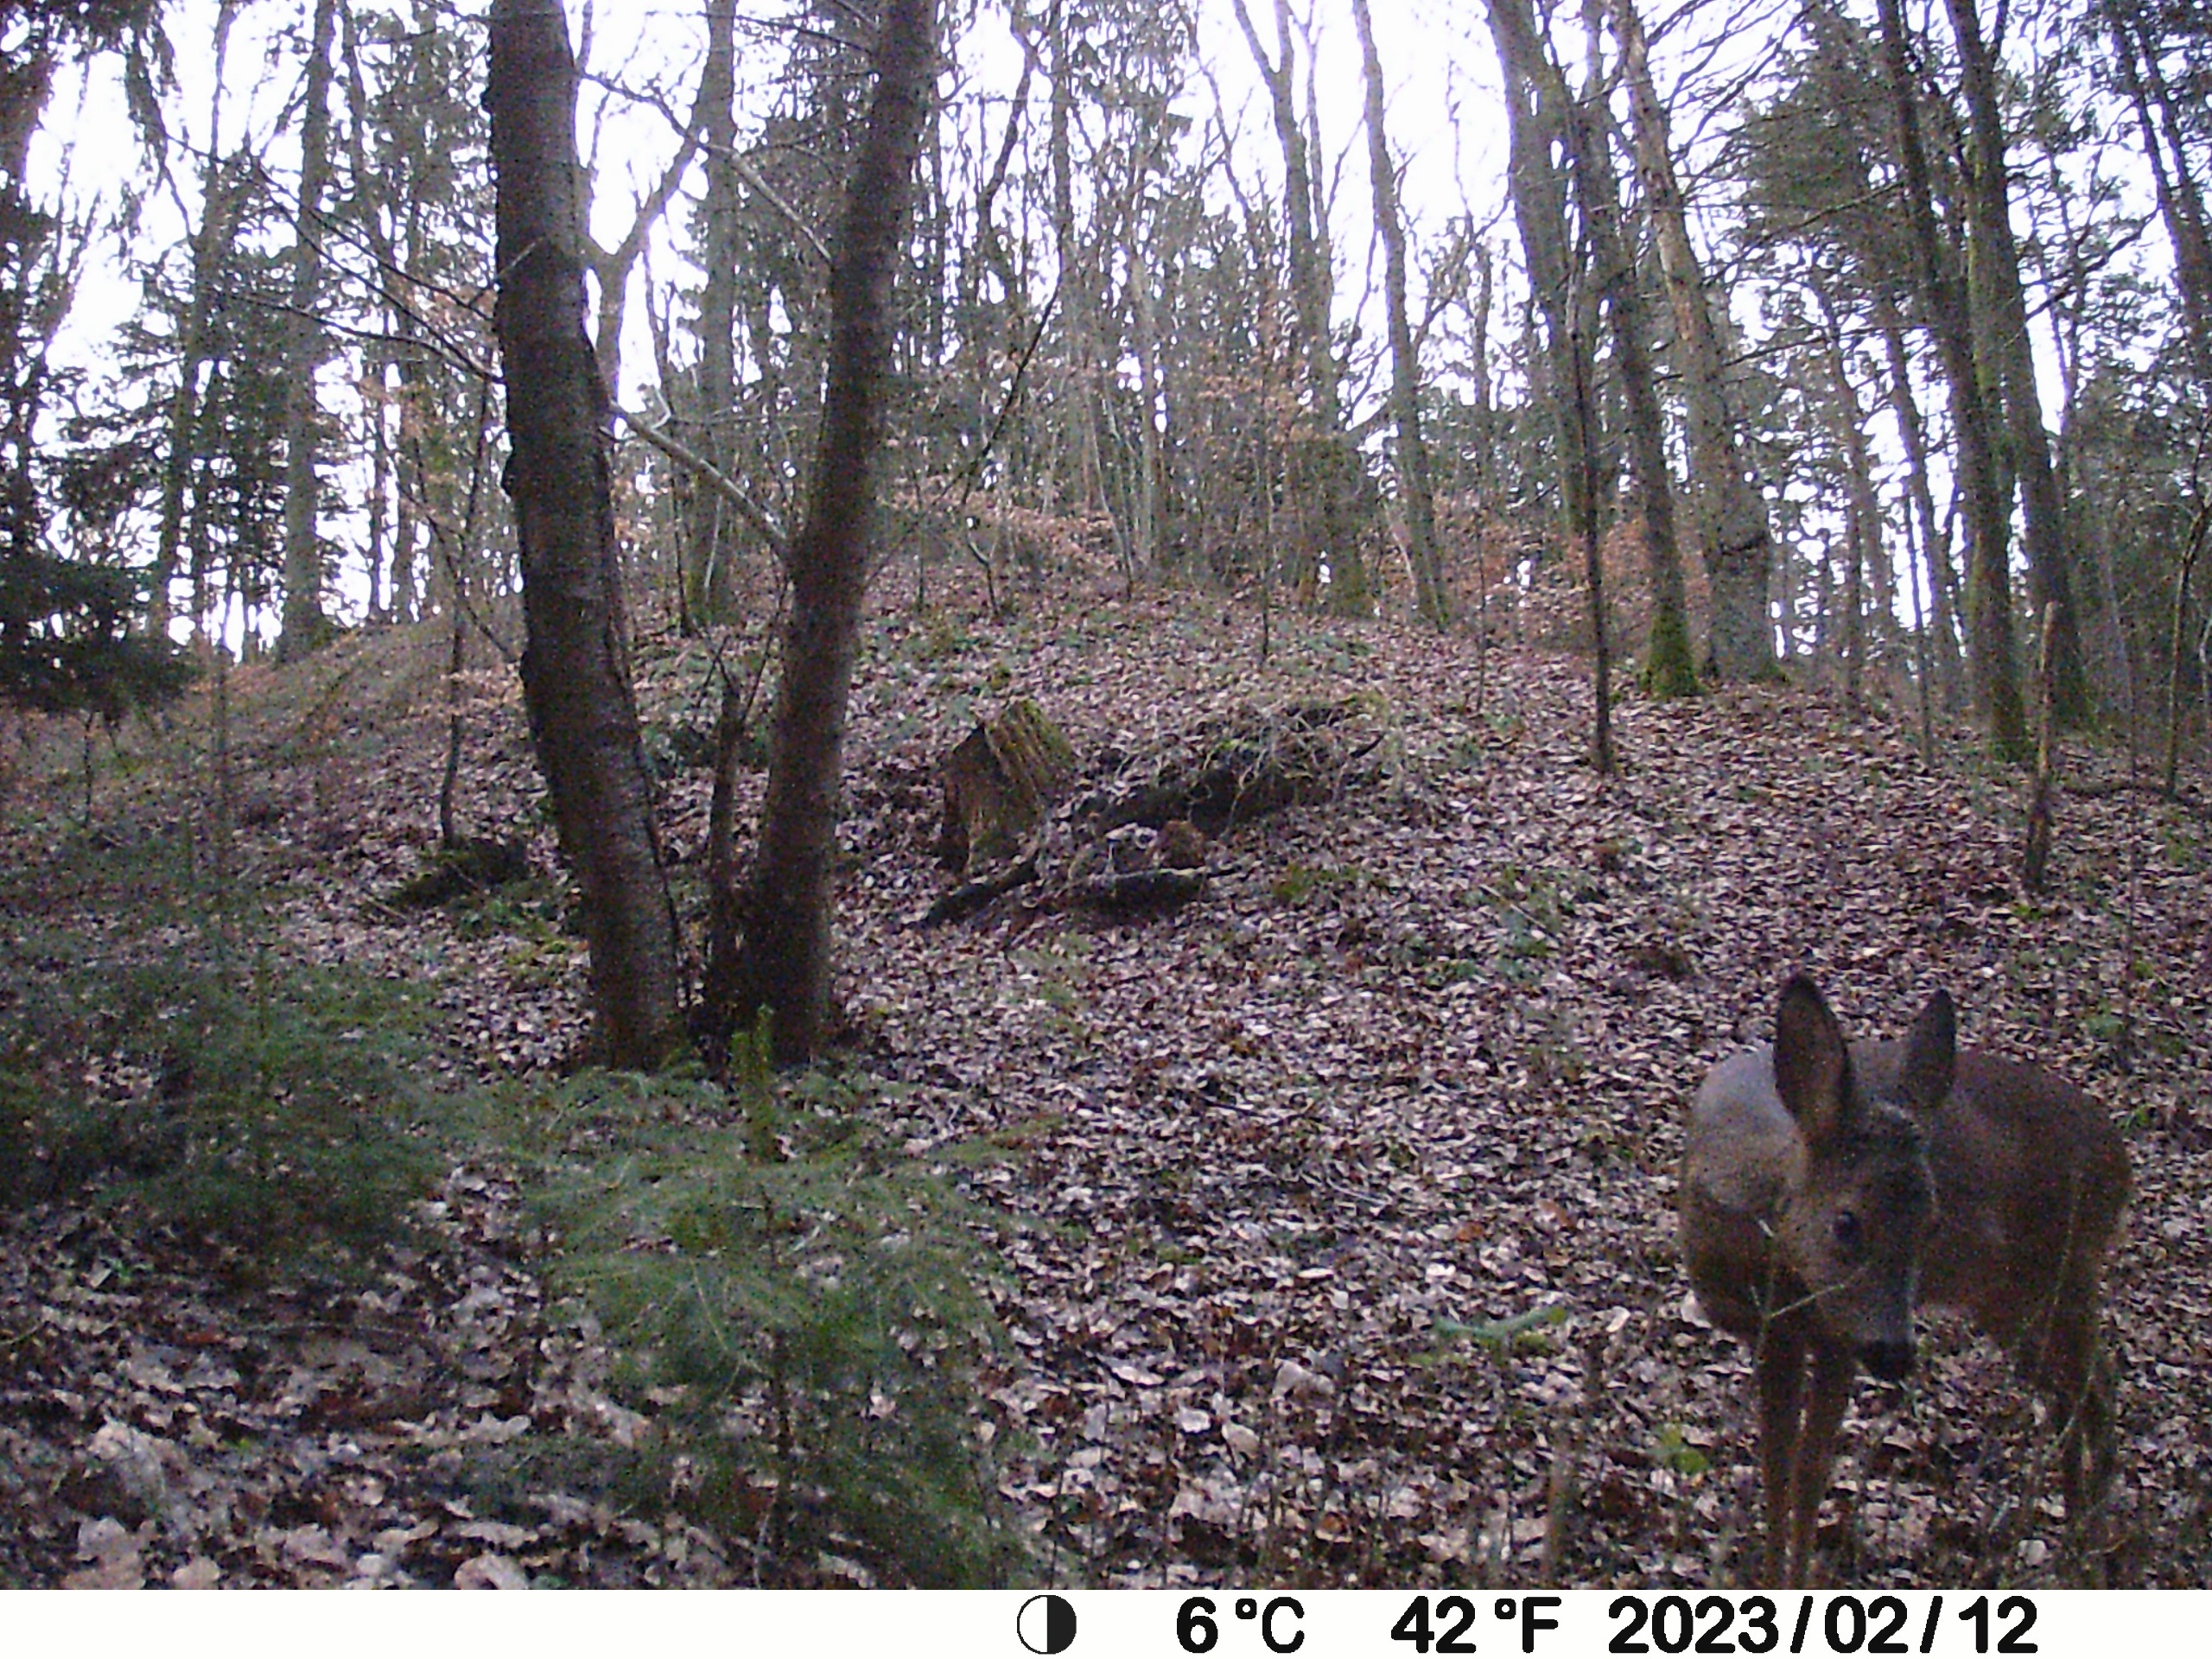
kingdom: Animalia
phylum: Chordata
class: Mammalia
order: Artiodactyla
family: Cervidae
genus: Capreolus
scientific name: Capreolus capreolus
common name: Rådyr
